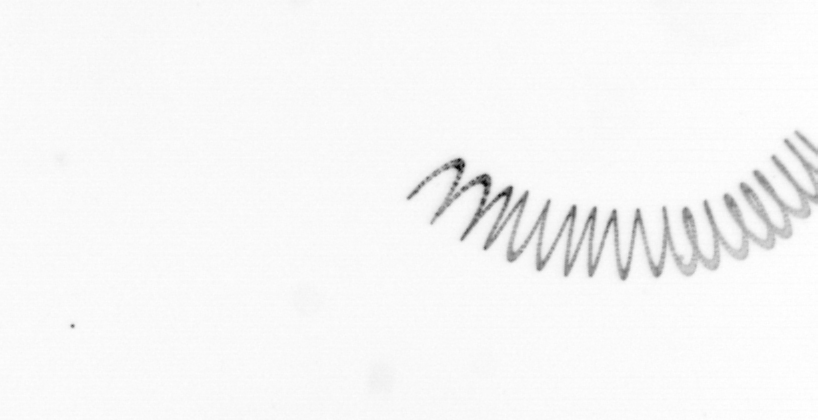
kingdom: Chromista
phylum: Ochrophyta
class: Bacillariophyceae
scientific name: Bacillariophyceae
